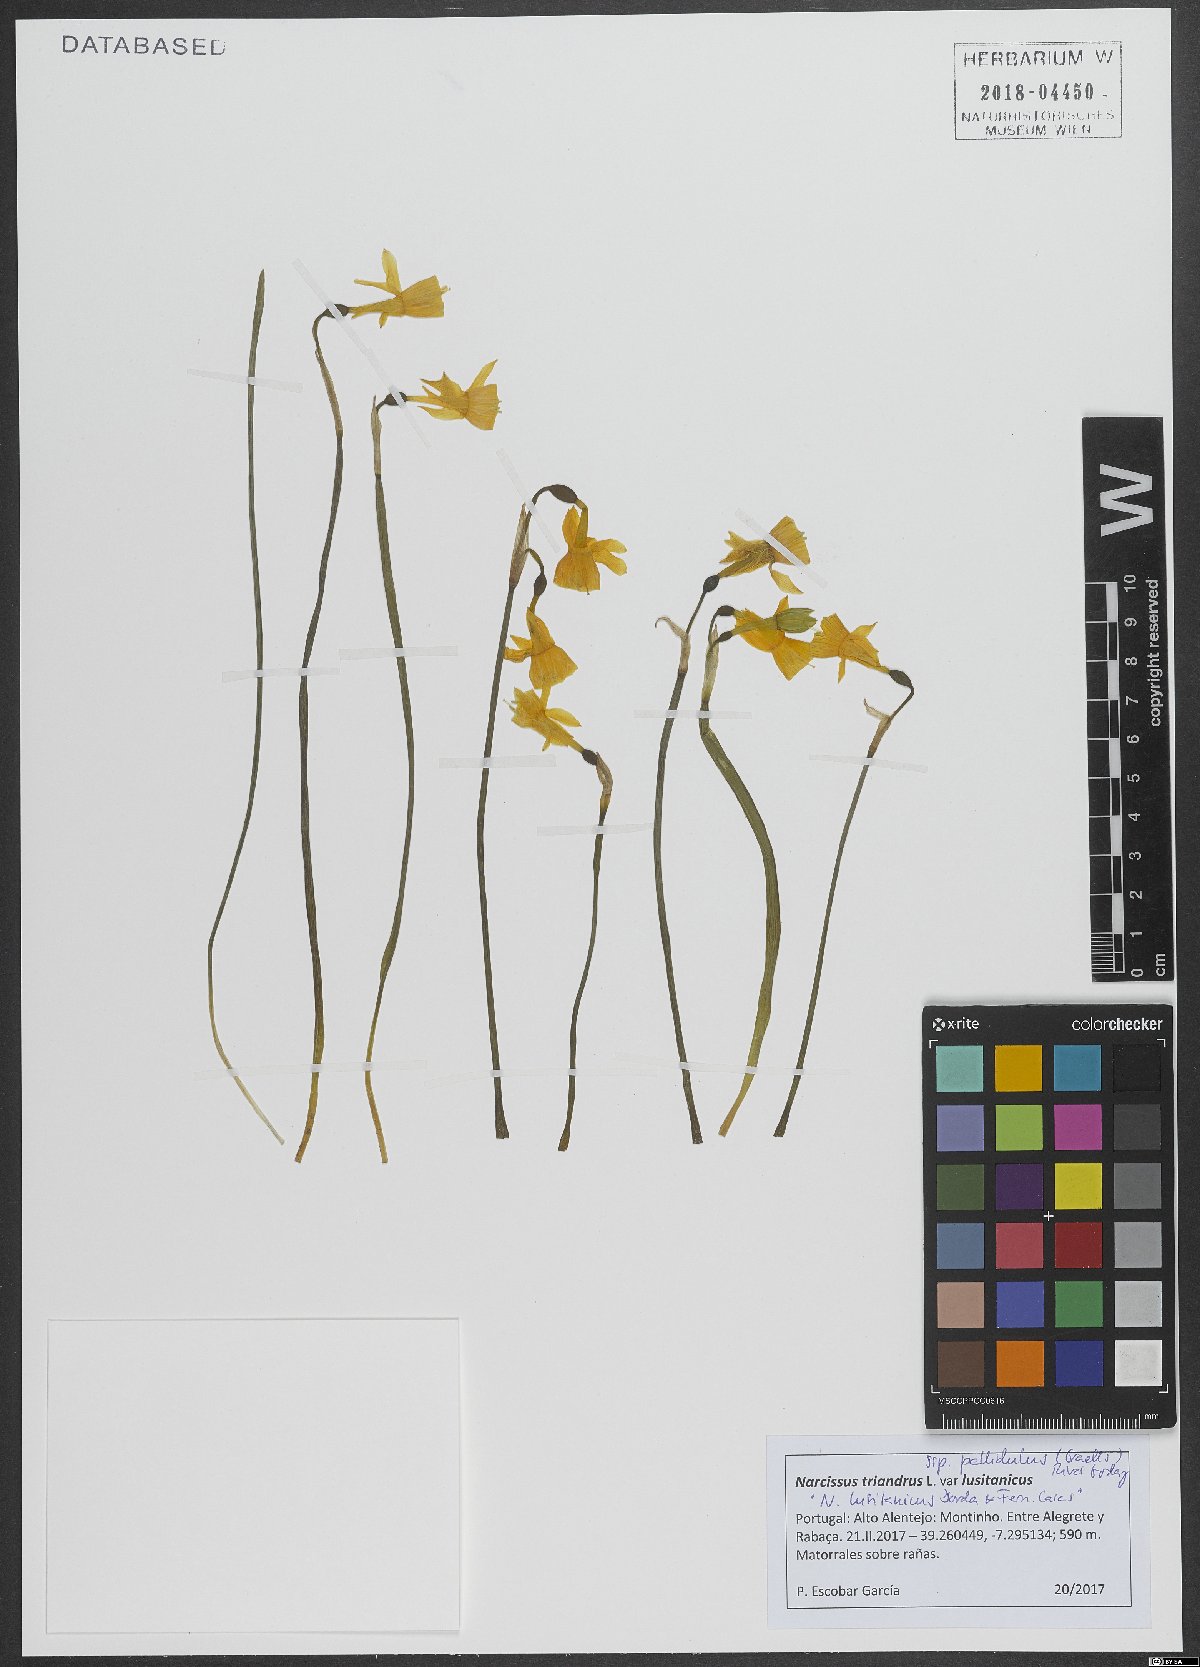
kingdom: Plantae
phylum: Tracheophyta
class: Liliopsida
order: Asparagales
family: Amaryllidaceae
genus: Narcissus
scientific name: Narcissus triandrus
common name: Angel's-tears
